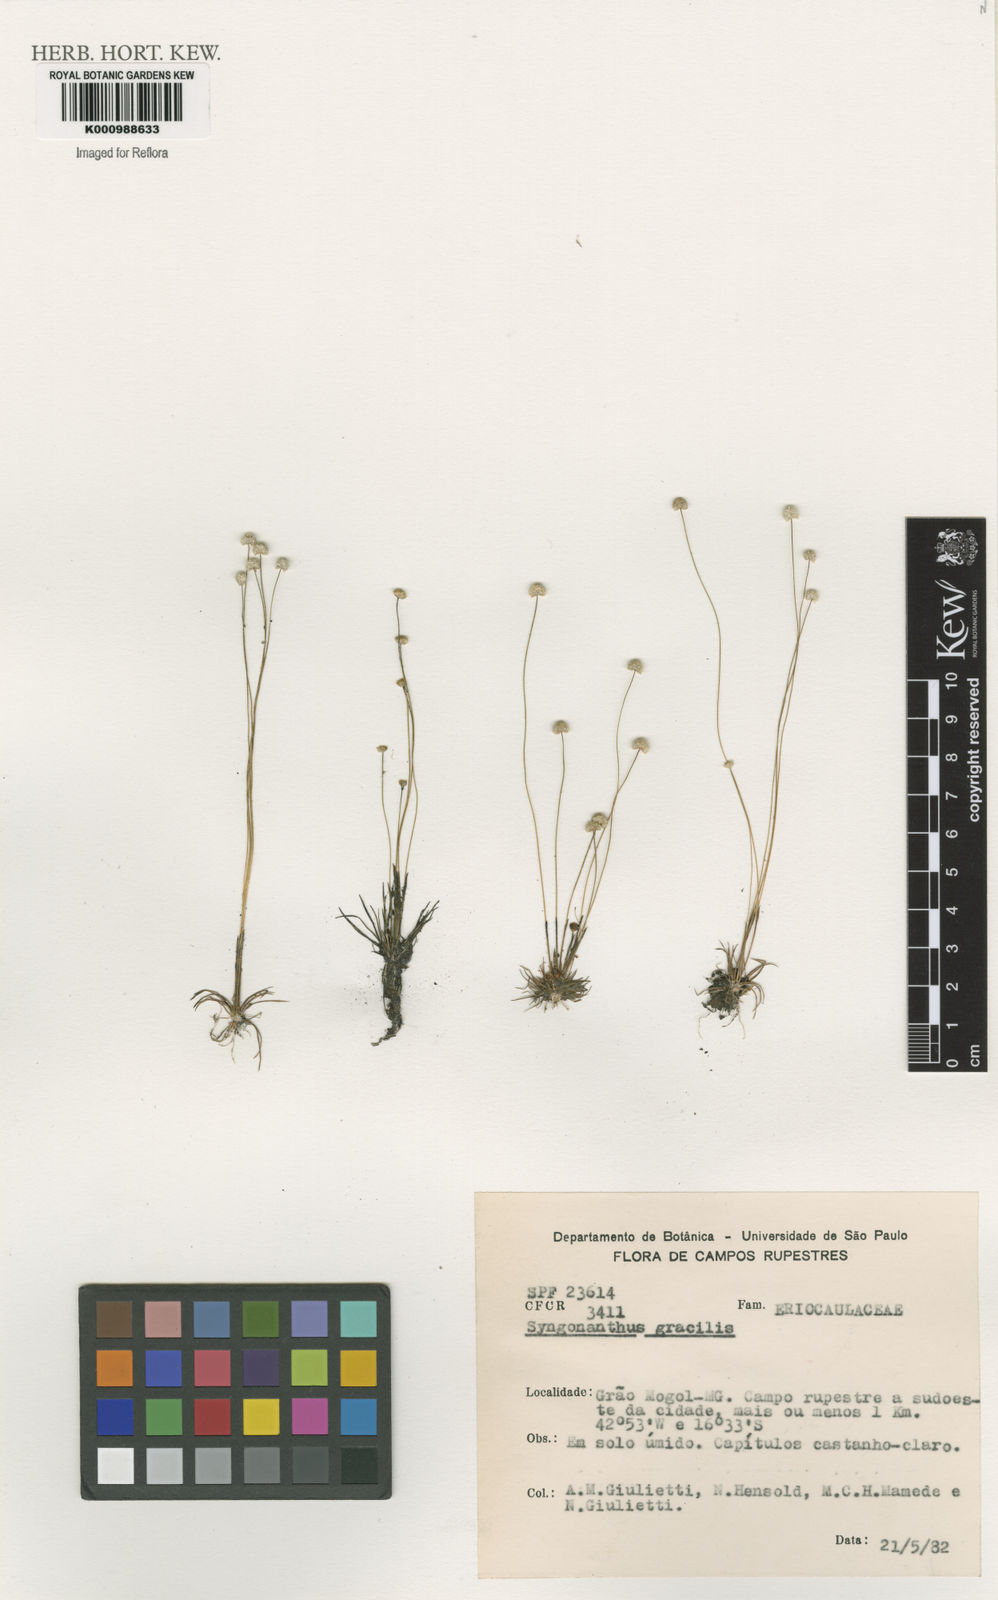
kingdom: Plantae
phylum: Tracheophyta
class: Liliopsida
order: Poales
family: Eriocaulaceae
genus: Syngonanthus
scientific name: Syngonanthus gracilis
